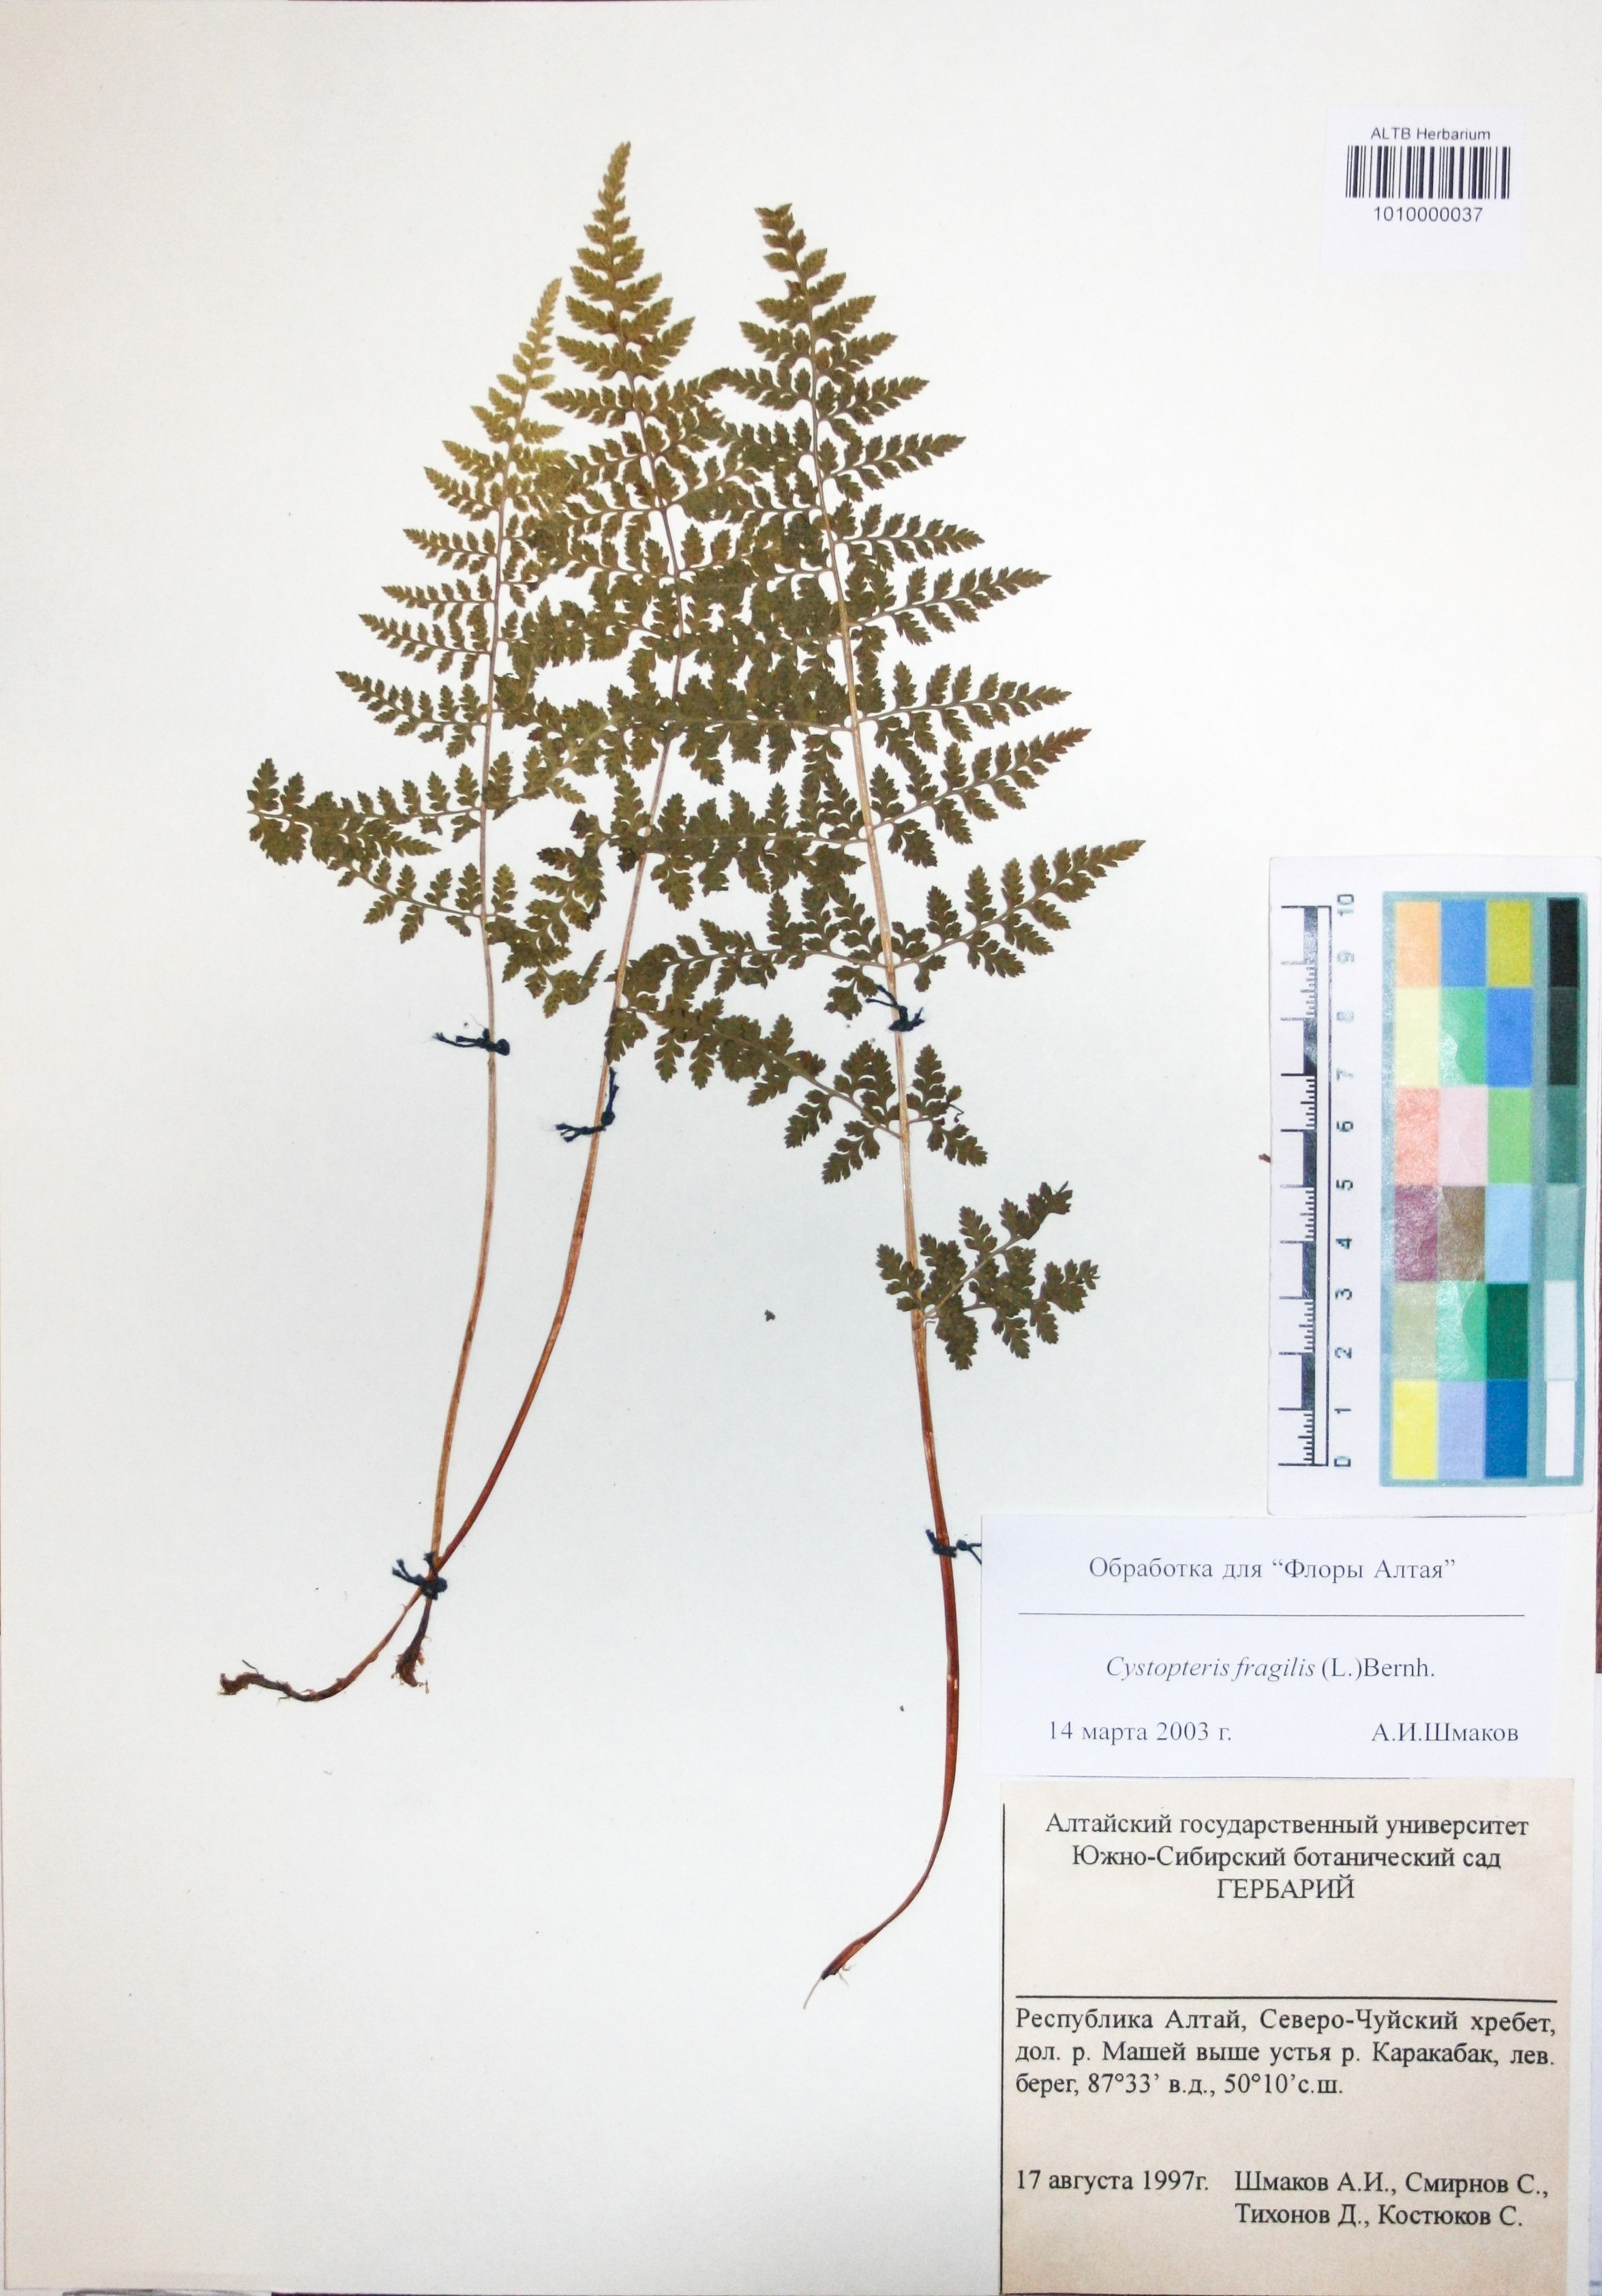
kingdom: Plantae
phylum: Tracheophyta
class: Polypodiopsida
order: Polypodiales
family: Cystopteridaceae
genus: Cystopteris
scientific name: Cystopteris fragilis
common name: Brittle bladder fern
